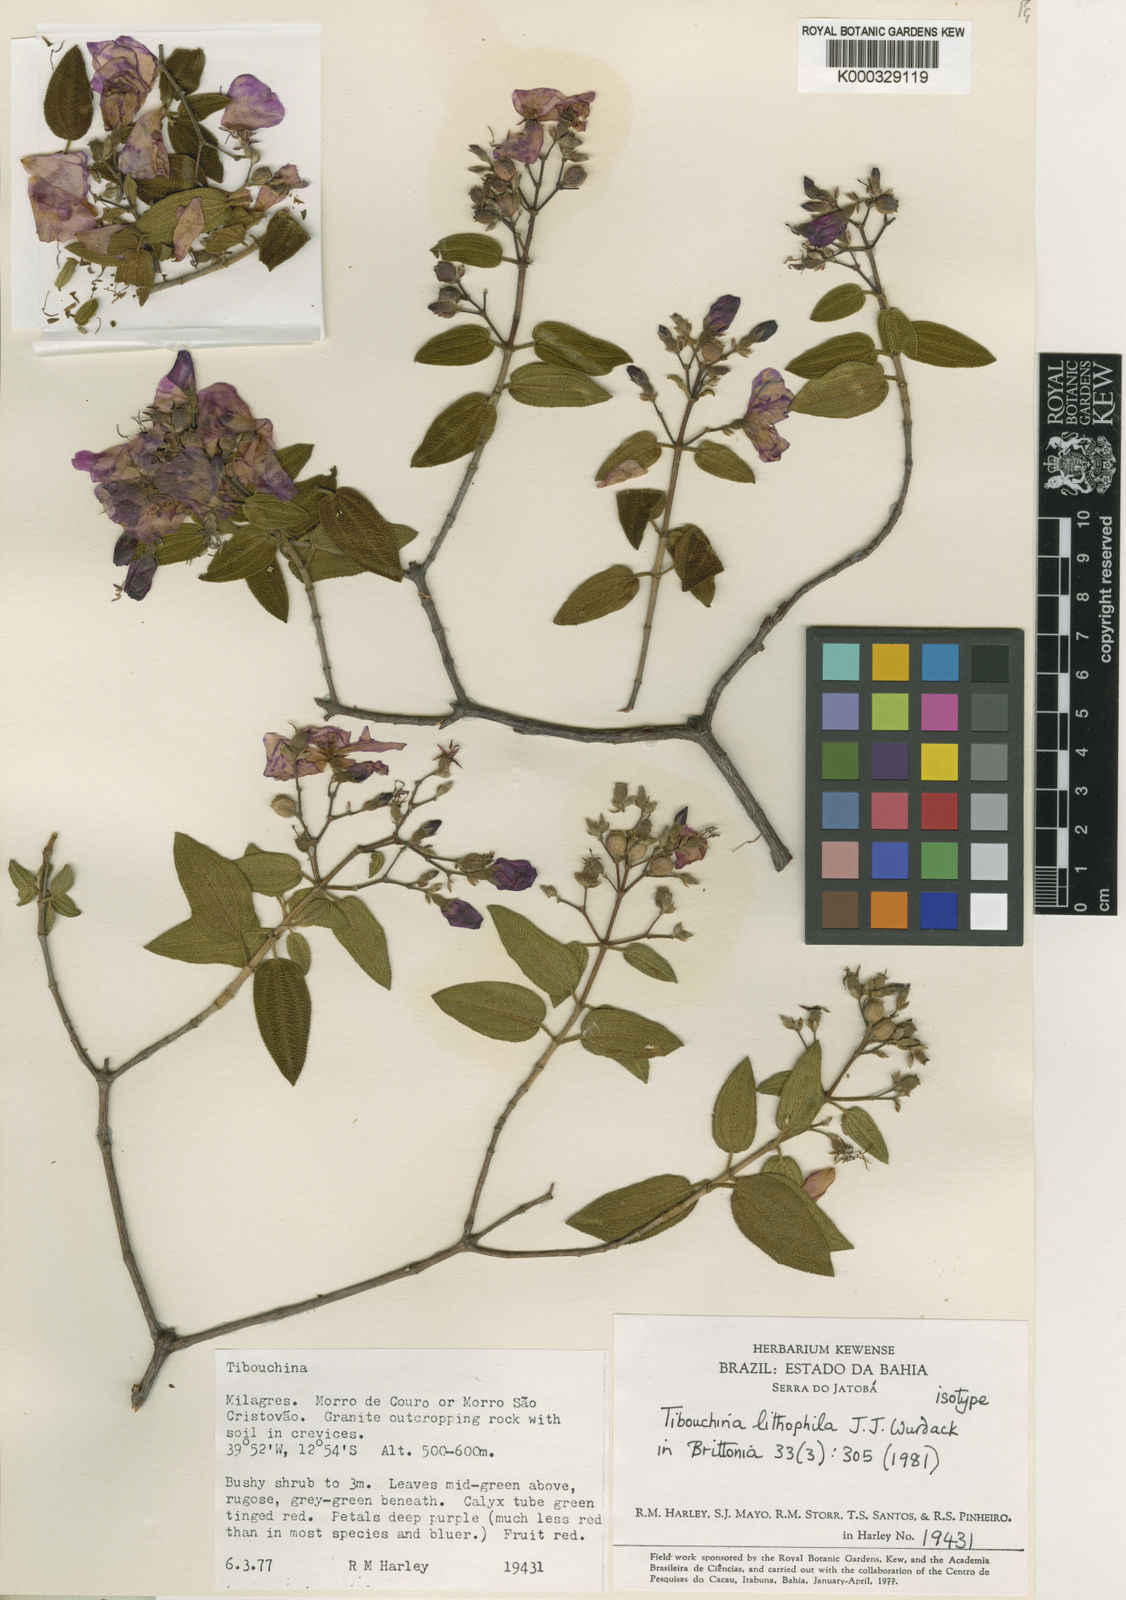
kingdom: Plantae
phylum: Tracheophyta
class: Magnoliopsida
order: Myrtales
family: Melastomataceae
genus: Tibouchina
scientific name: Tibouchina lithophila
